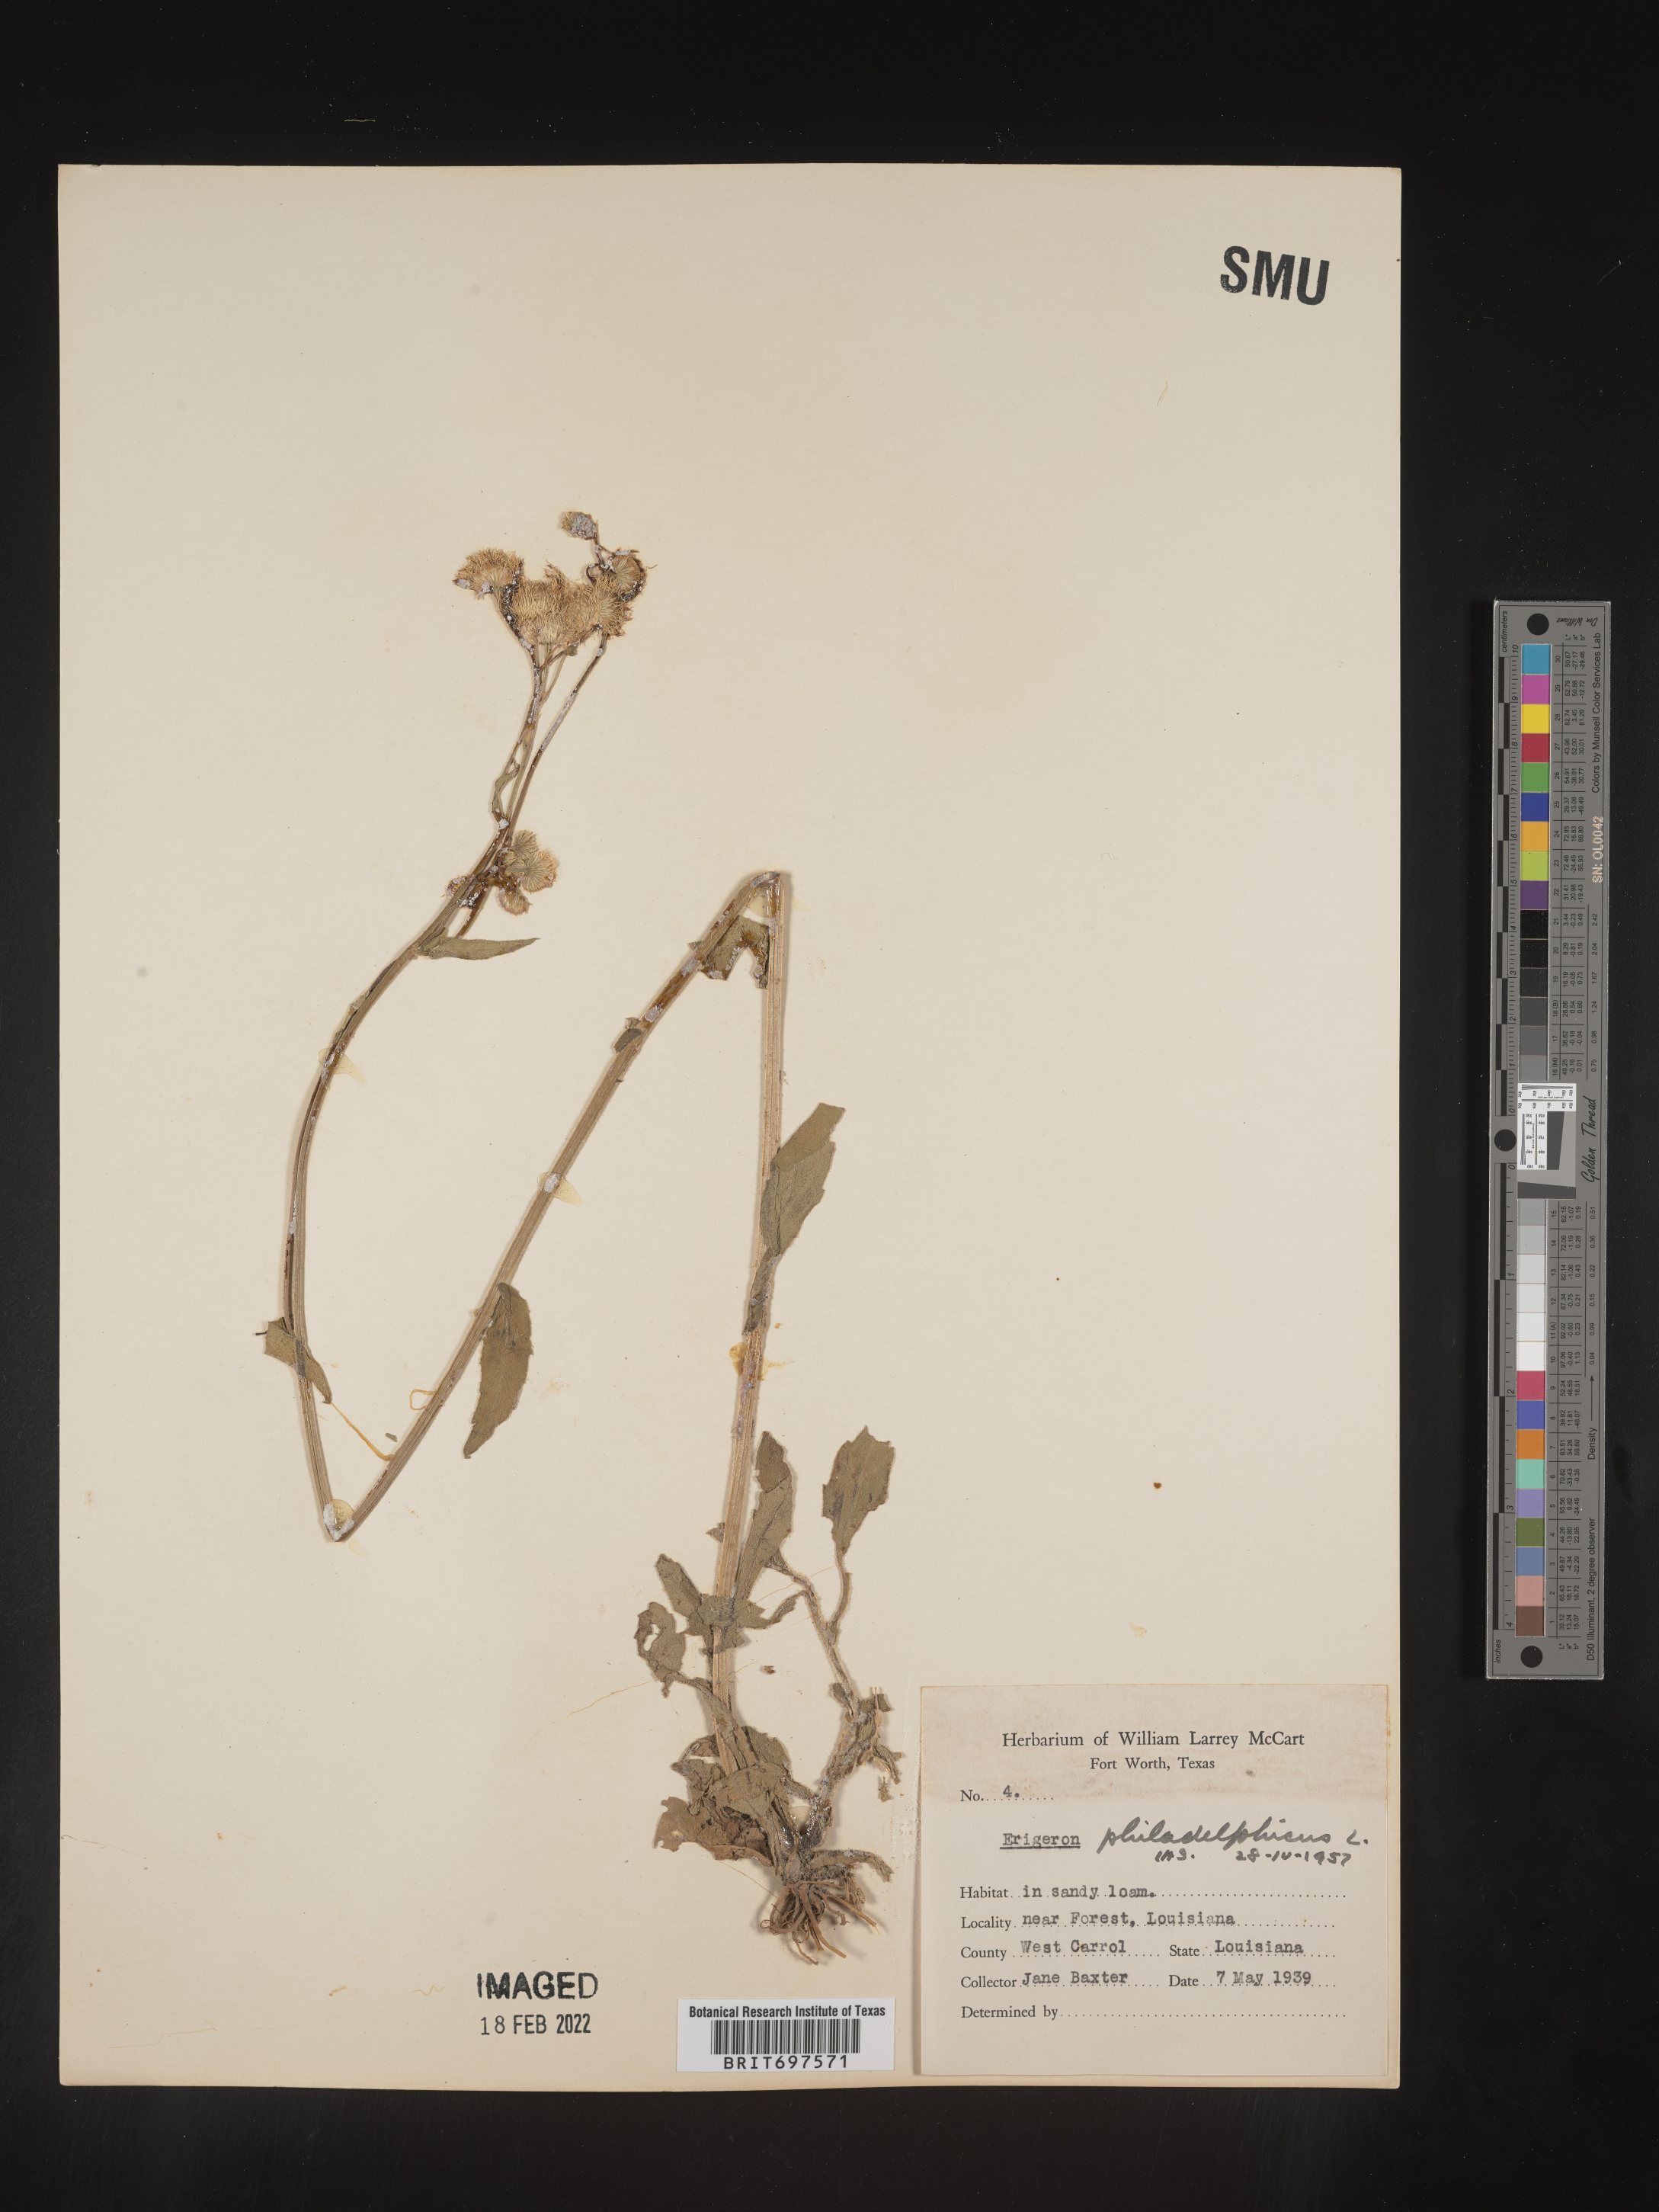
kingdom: Plantae
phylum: Tracheophyta
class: Magnoliopsida
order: Asterales
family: Asteraceae
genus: Erigeron
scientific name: Erigeron philadelphicus
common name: Robin's-plantain
